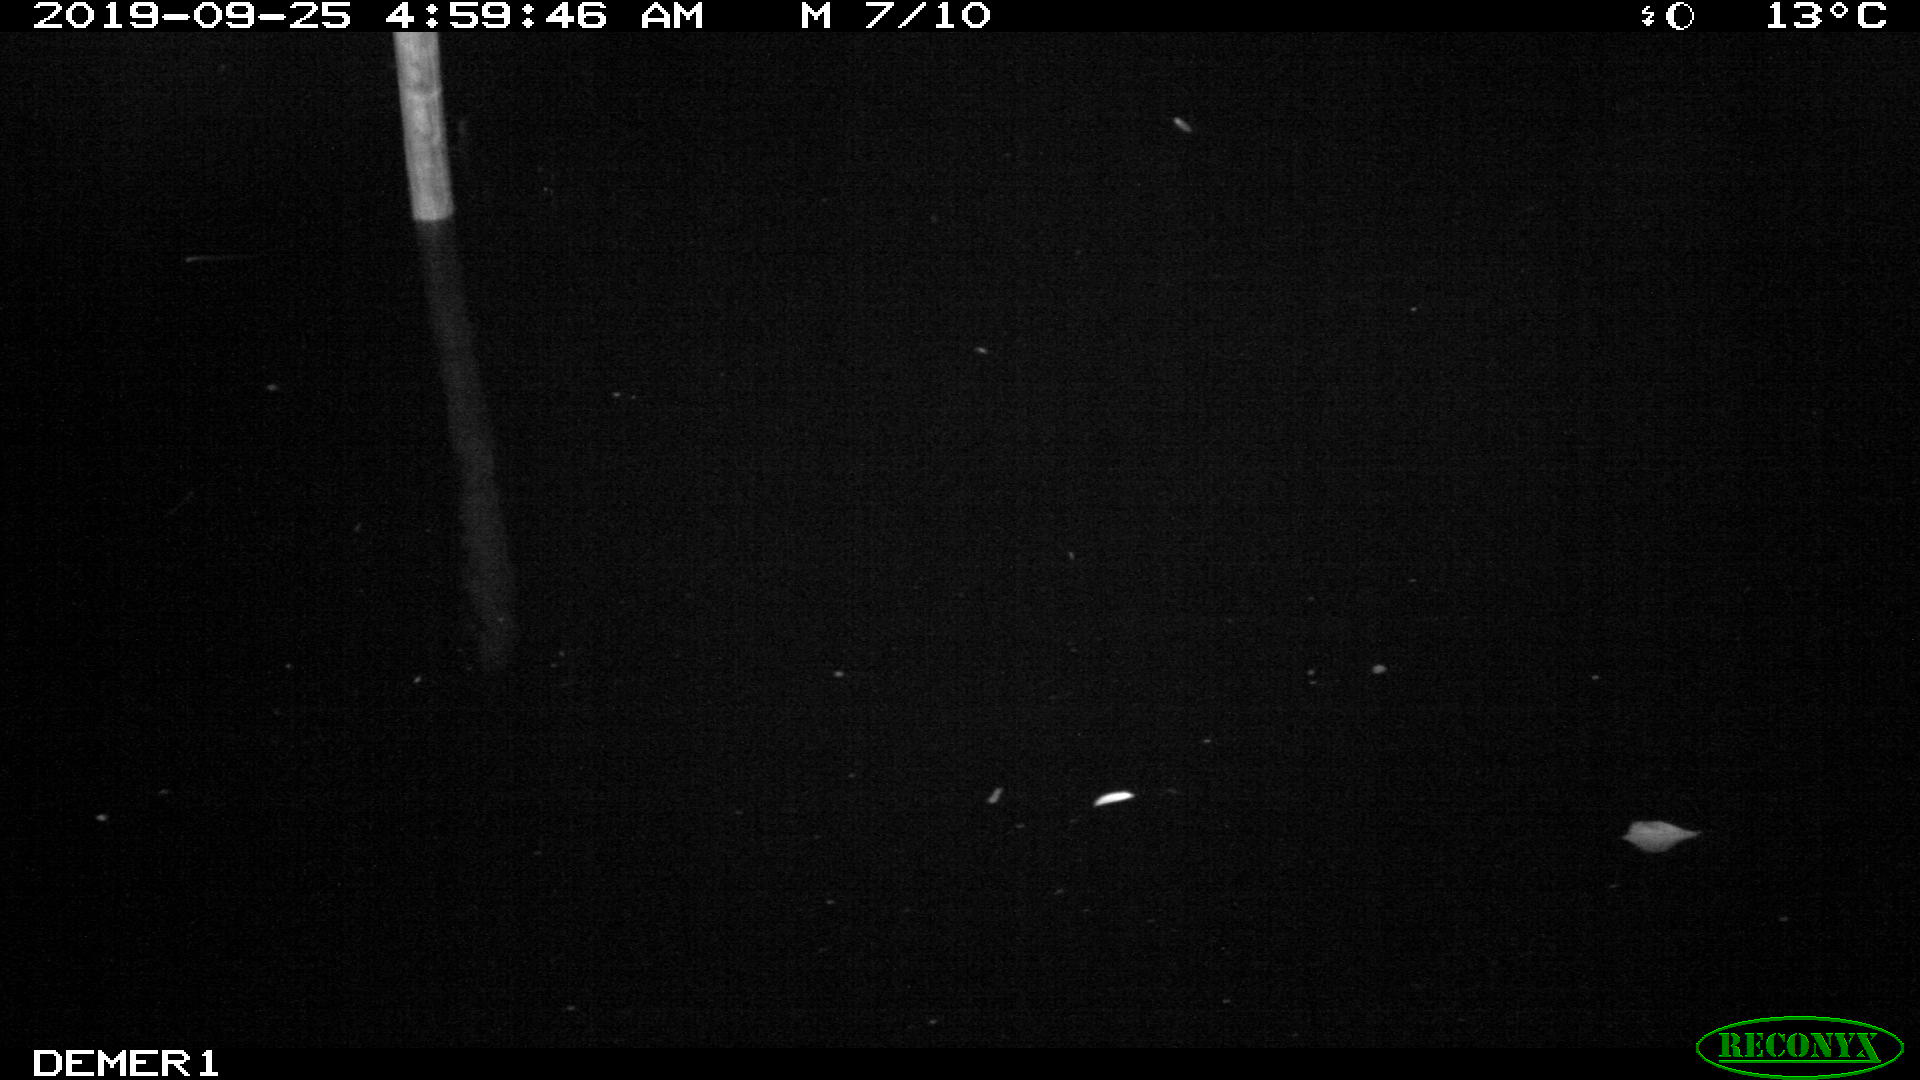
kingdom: Animalia
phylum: Chordata
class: Aves
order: Anseriformes
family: Anatidae
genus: Anas
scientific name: Anas platyrhynchos
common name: Mallard
